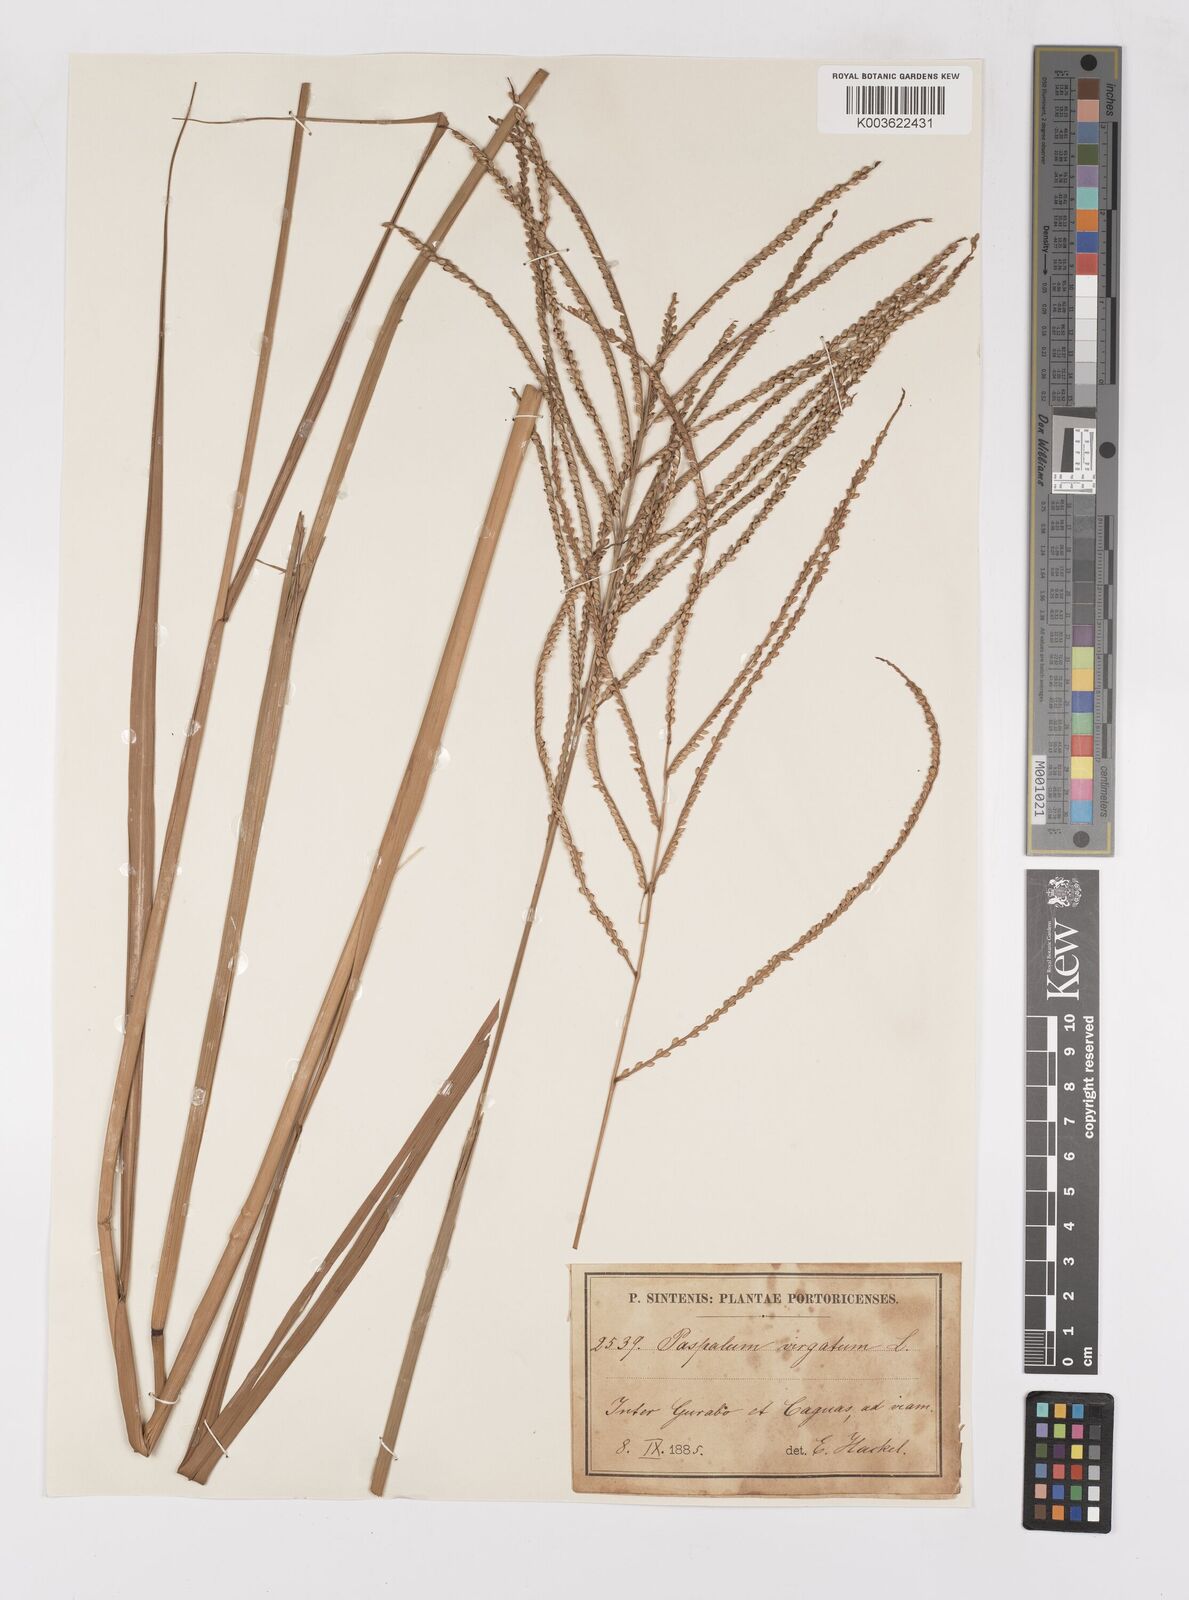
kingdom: Plantae
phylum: Tracheophyta
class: Liliopsida
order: Poales
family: Poaceae
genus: Paspalum
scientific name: Paspalum virgatum
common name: Talquezal
